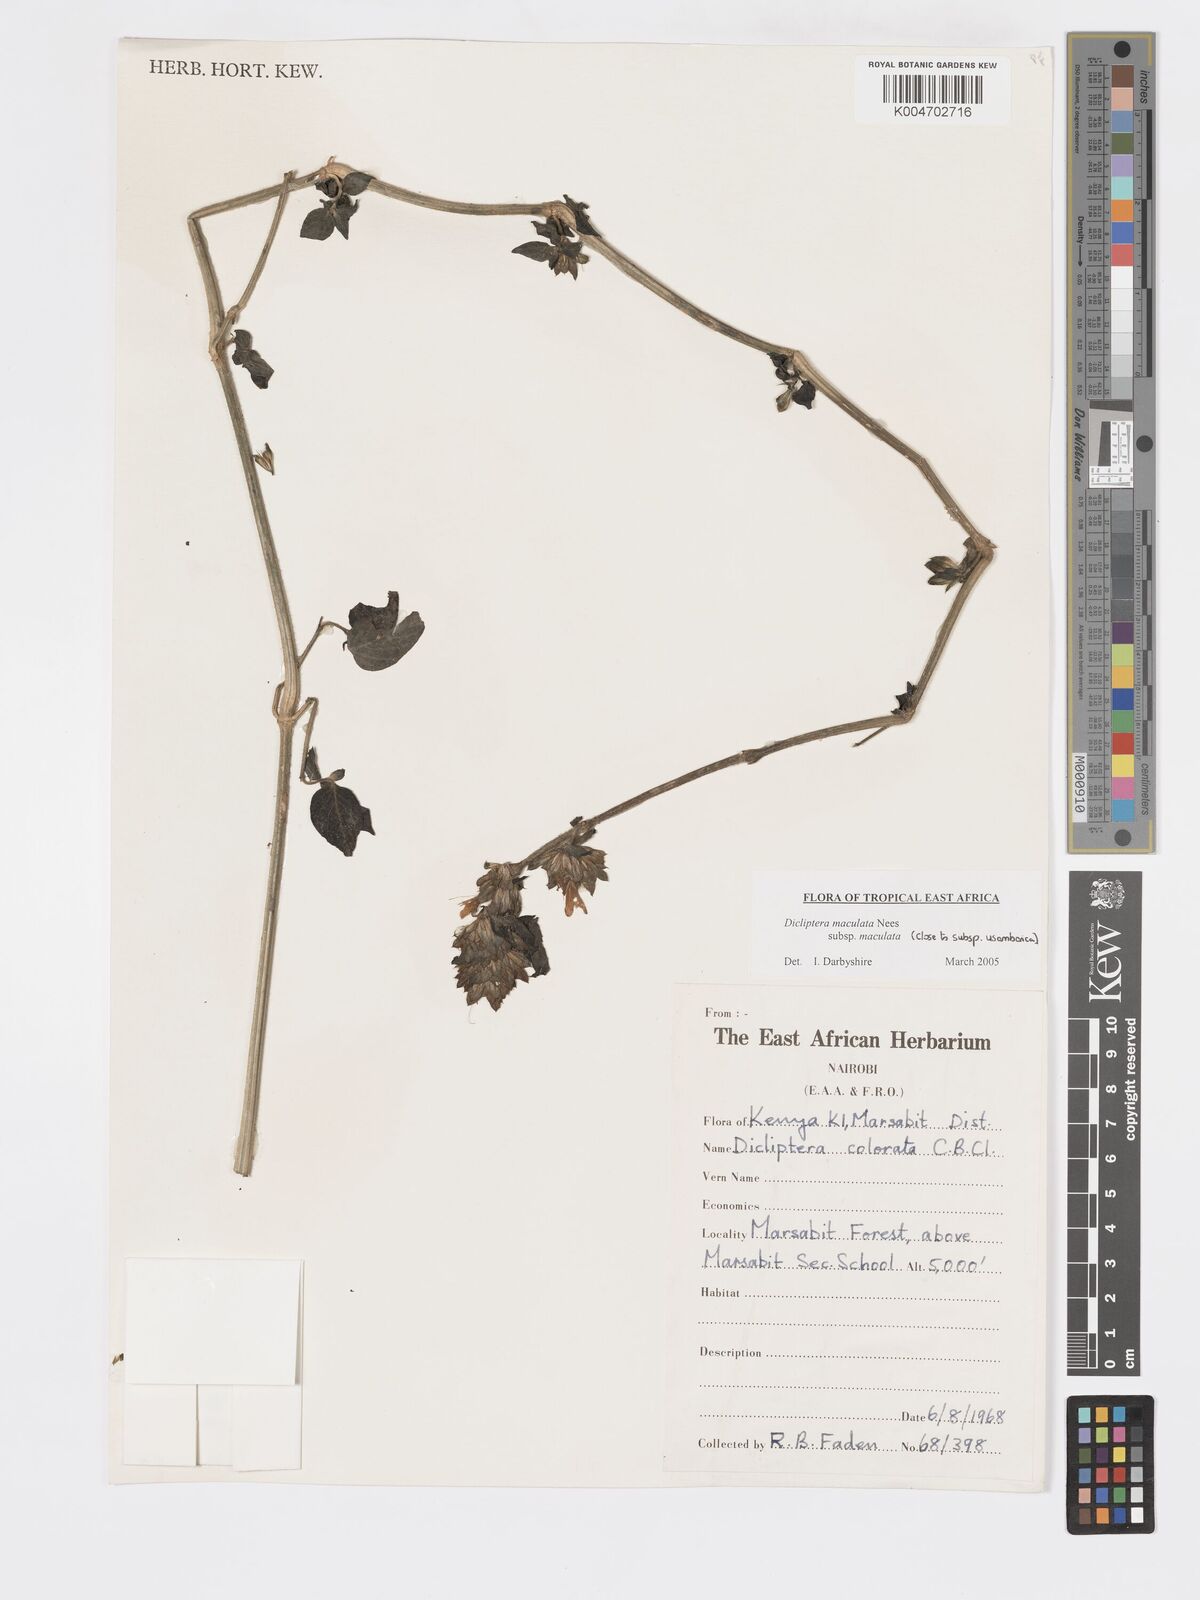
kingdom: Plantae
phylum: Tracheophyta
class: Magnoliopsida
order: Lamiales
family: Acanthaceae
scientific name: Acanthaceae
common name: Acanthaceae
